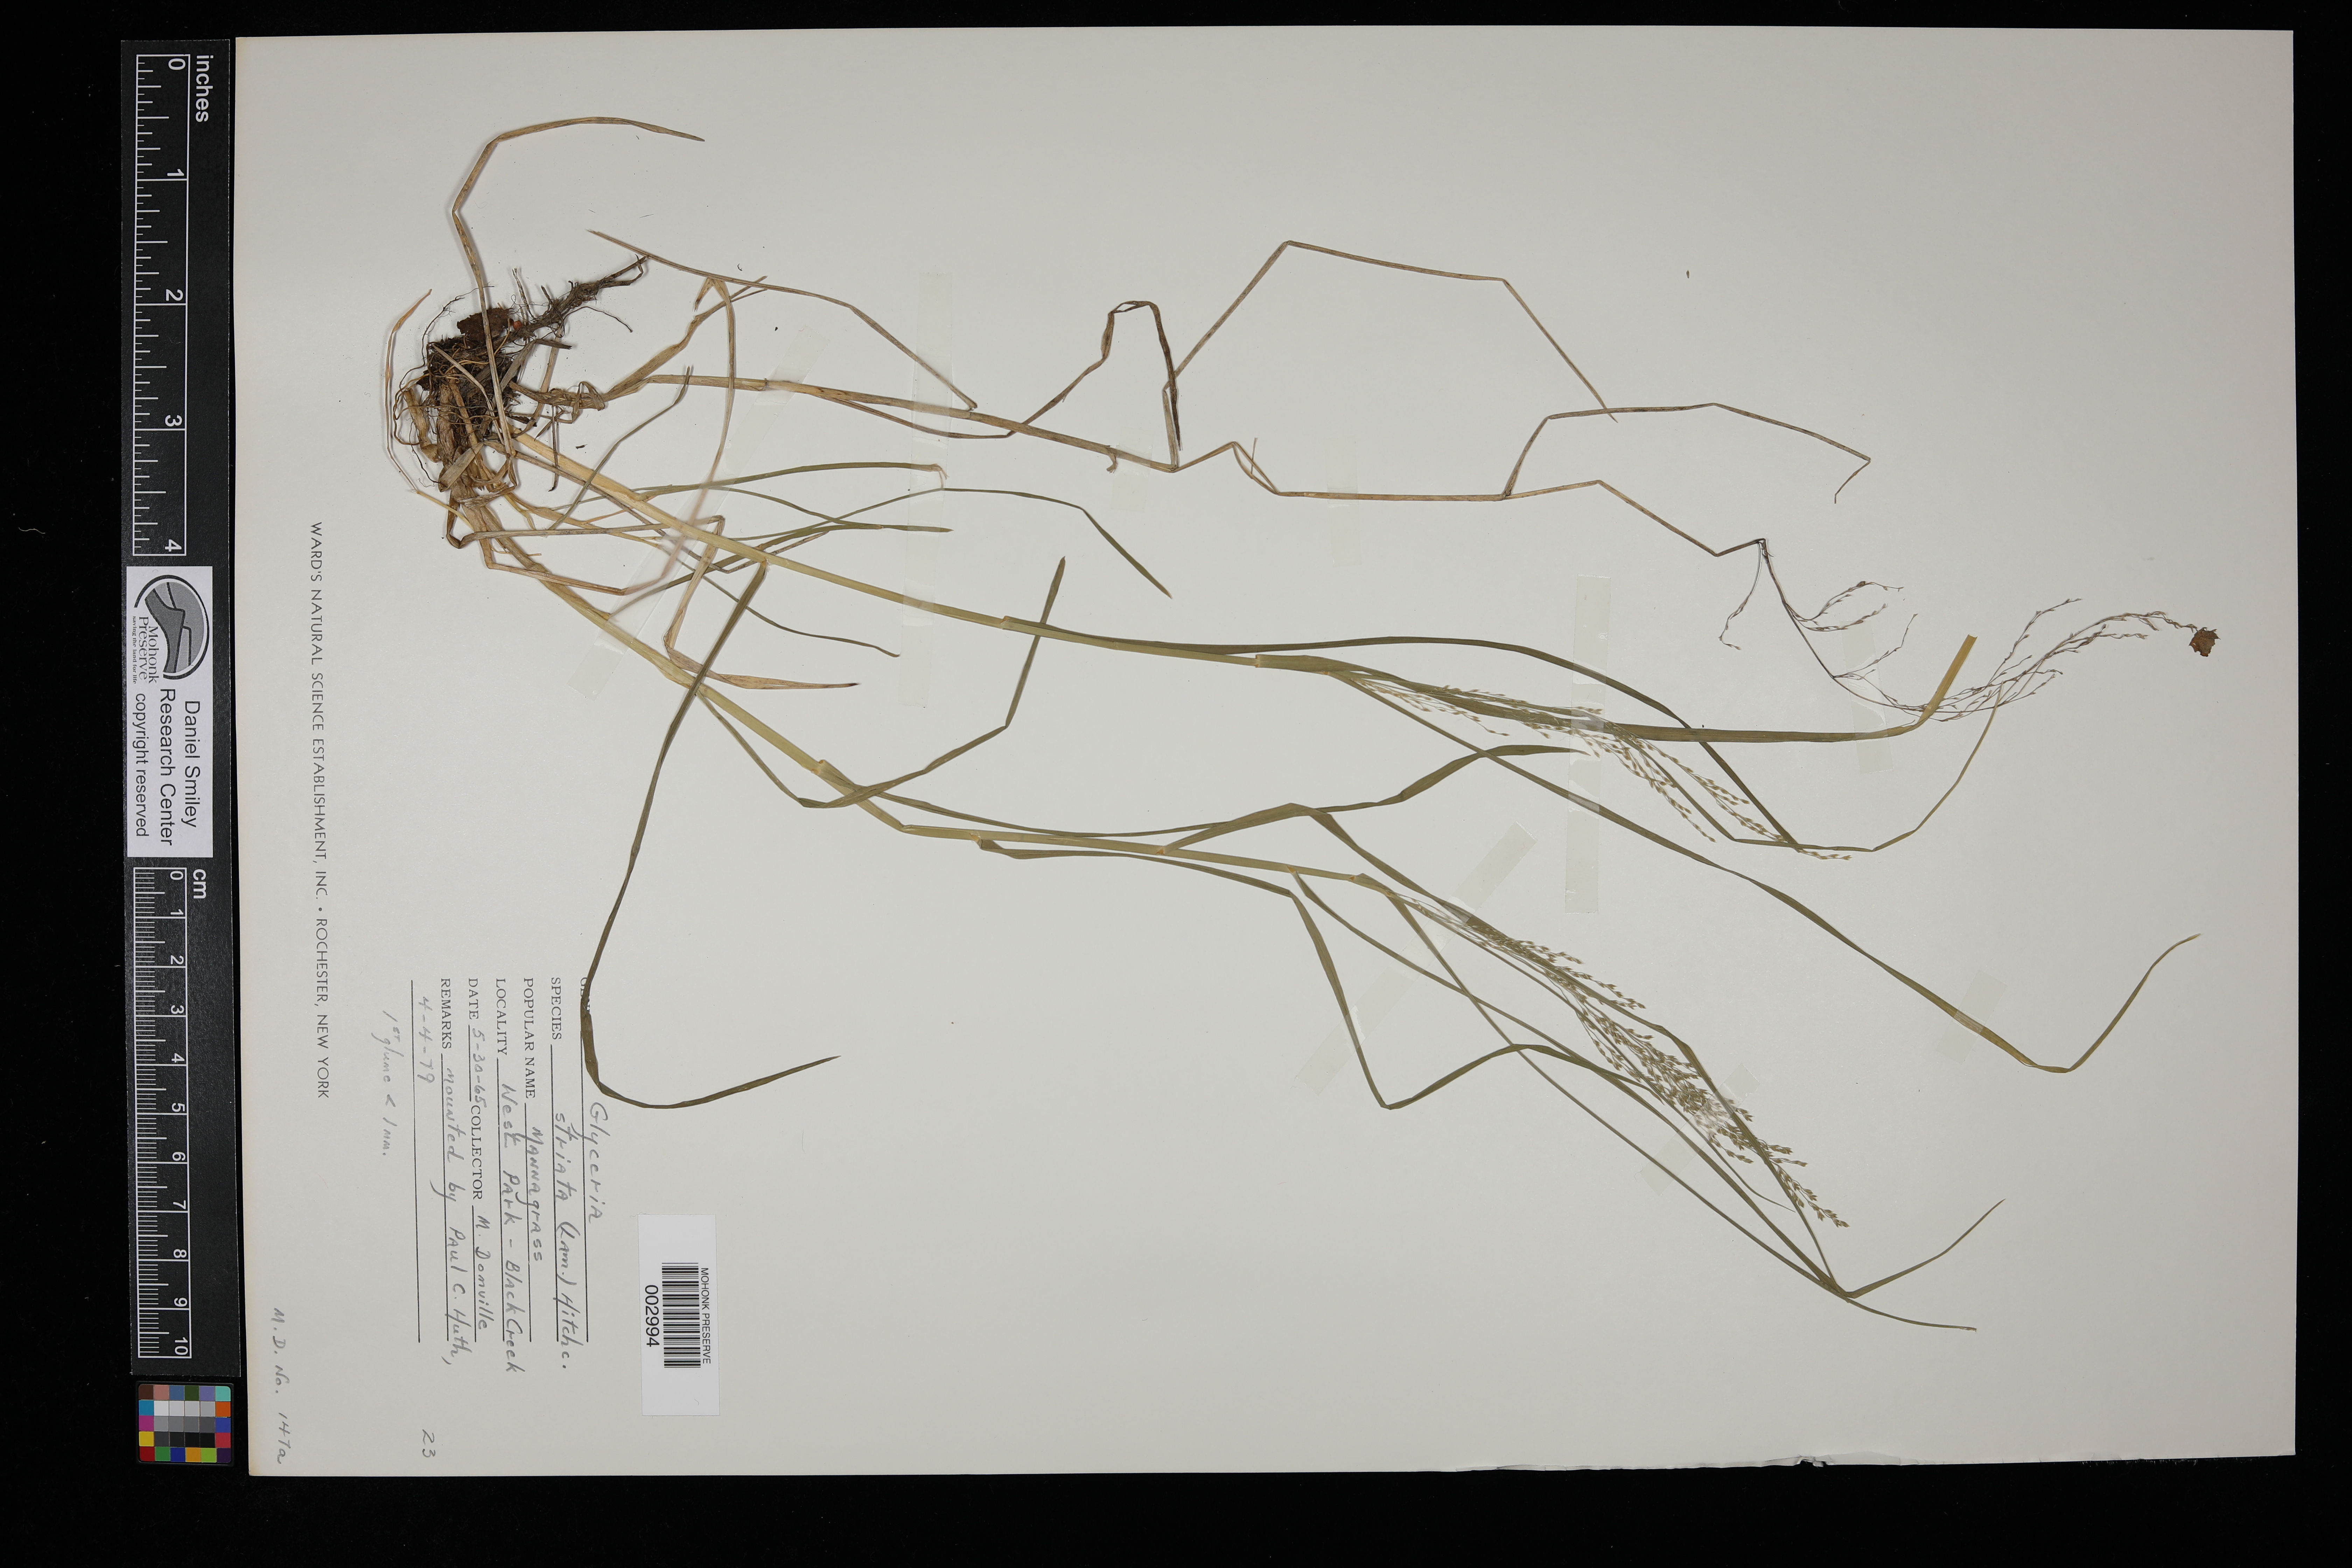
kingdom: Plantae
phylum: Tracheophyta
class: Liliopsida
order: Poales
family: Poaceae
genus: Glyceria
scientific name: Glyceria striata
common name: Fowl manna grass
